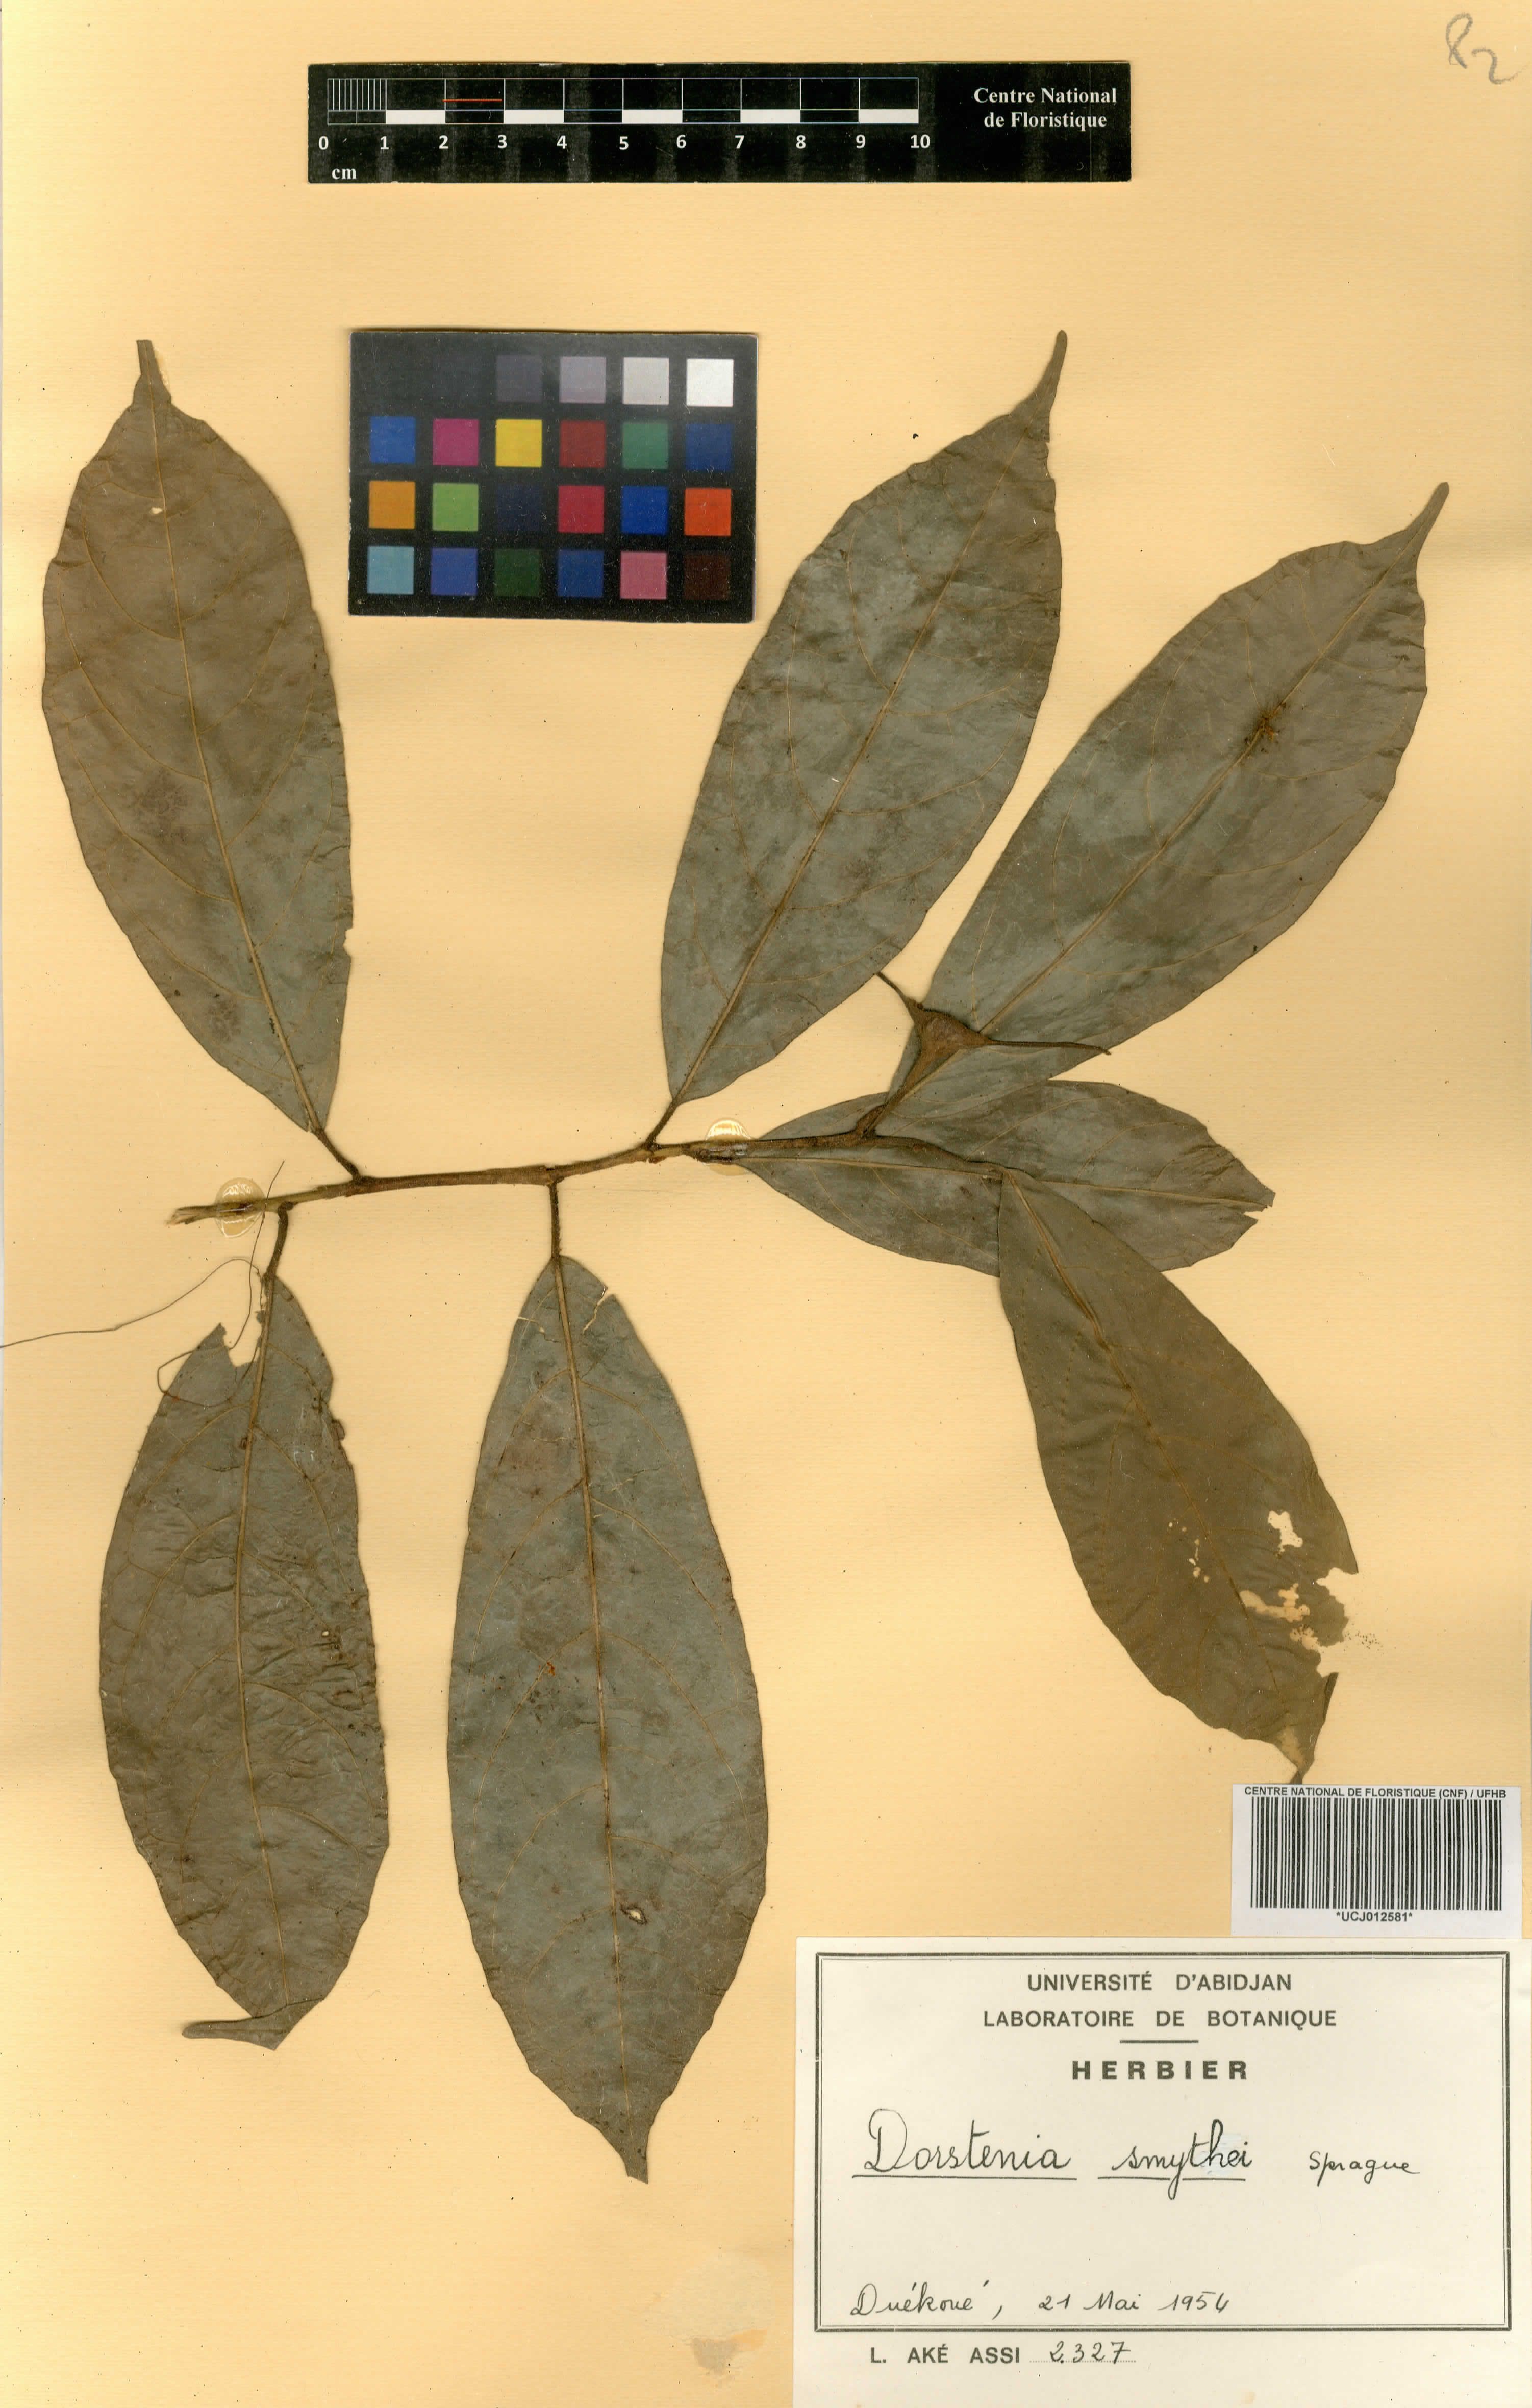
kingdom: Plantae
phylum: Tracheophyta
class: Magnoliopsida
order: Rosales
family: Moraceae
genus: Hijmania
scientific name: Hijmania turbinata
